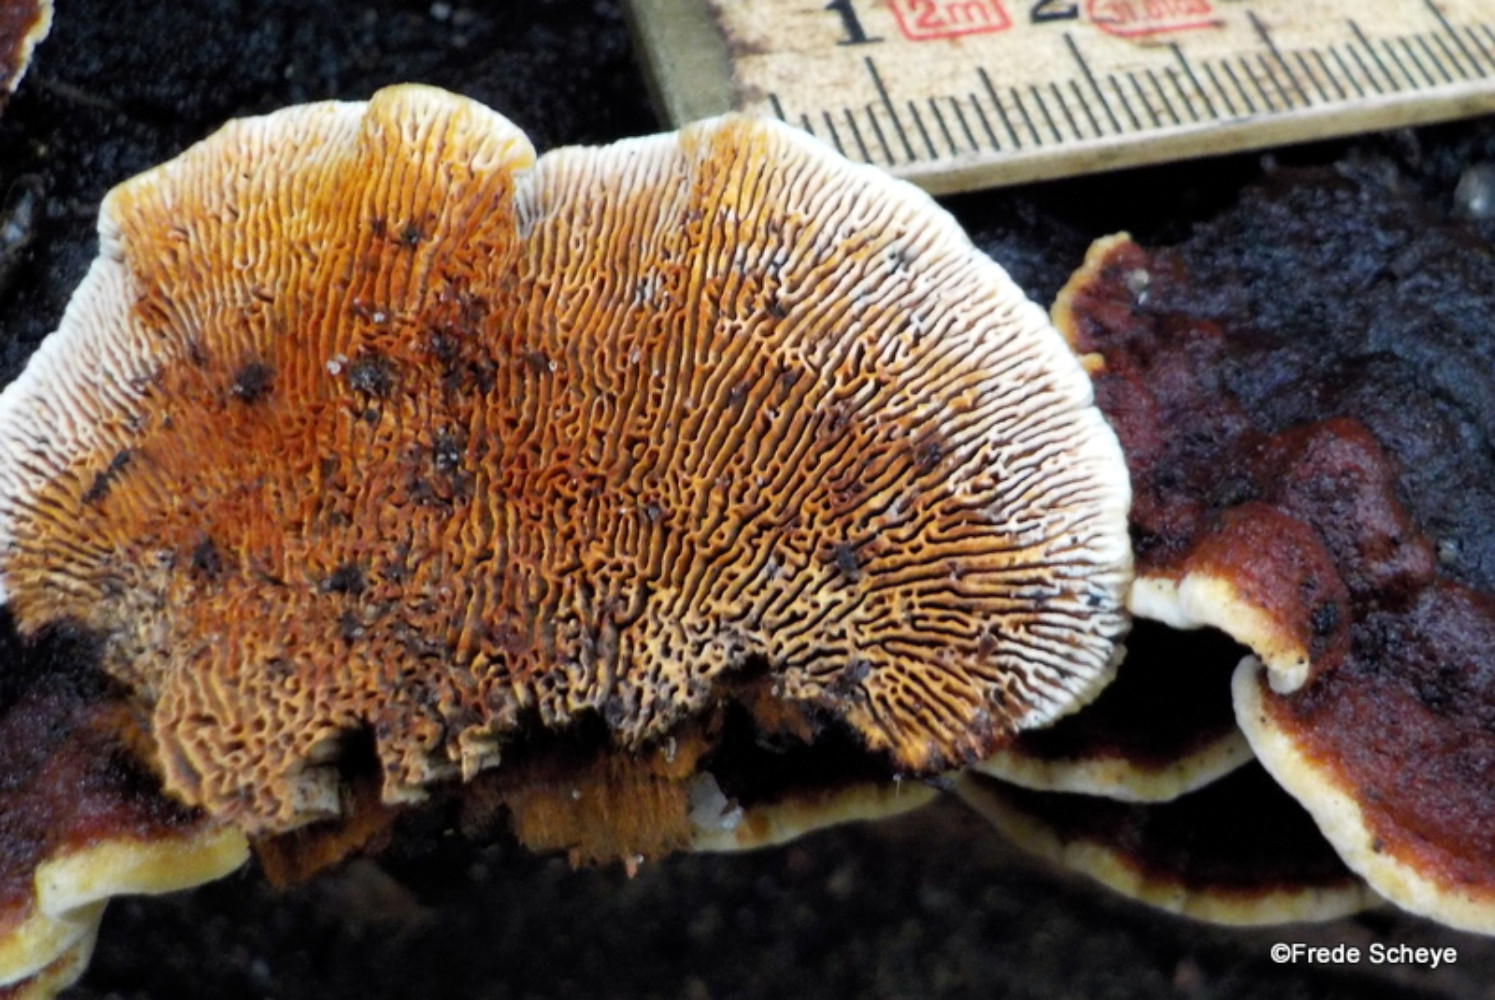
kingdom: Fungi
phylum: Basidiomycota
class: Agaricomycetes
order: Gloeophyllales
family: Gloeophyllaceae
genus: Gloeophyllum
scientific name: Gloeophyllum sepiarium
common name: fyrre-korkhat
